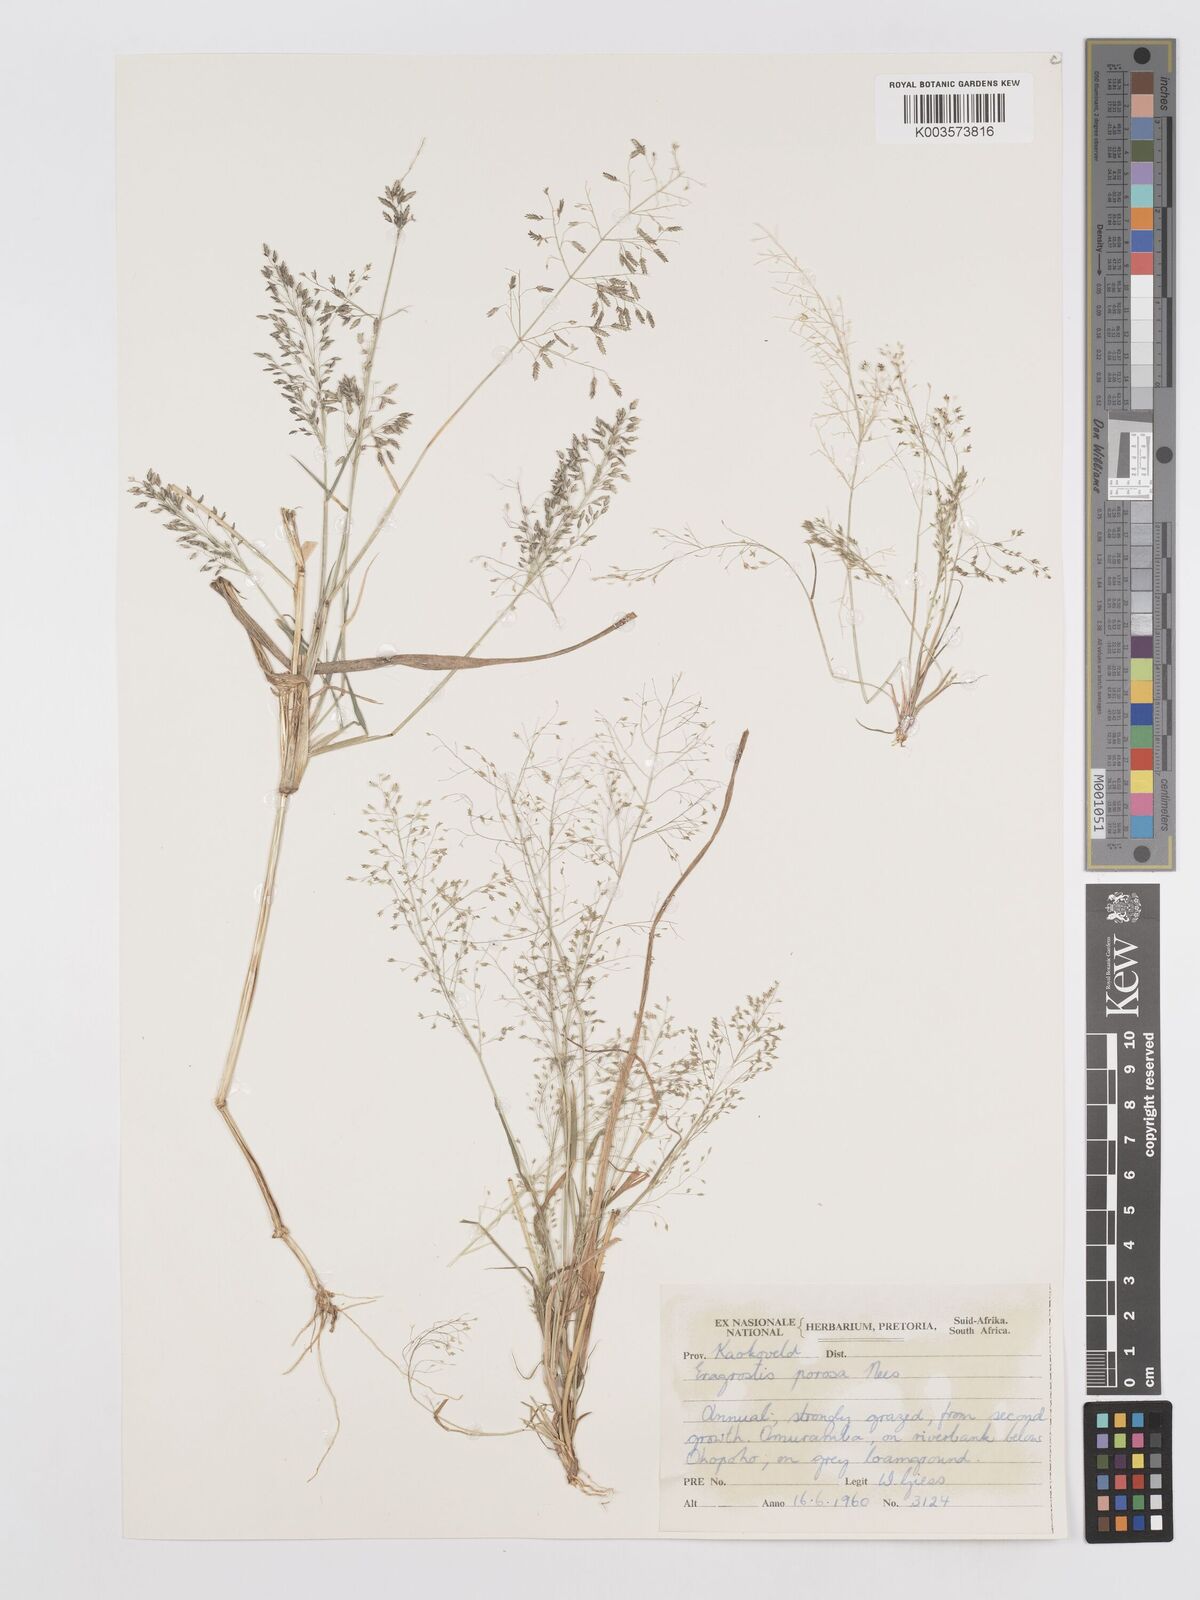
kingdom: Plantae
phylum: Tracheophyta
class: Liliopsida
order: Poales
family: Poaceae
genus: Eragrostis
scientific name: Eragrostis porosa
